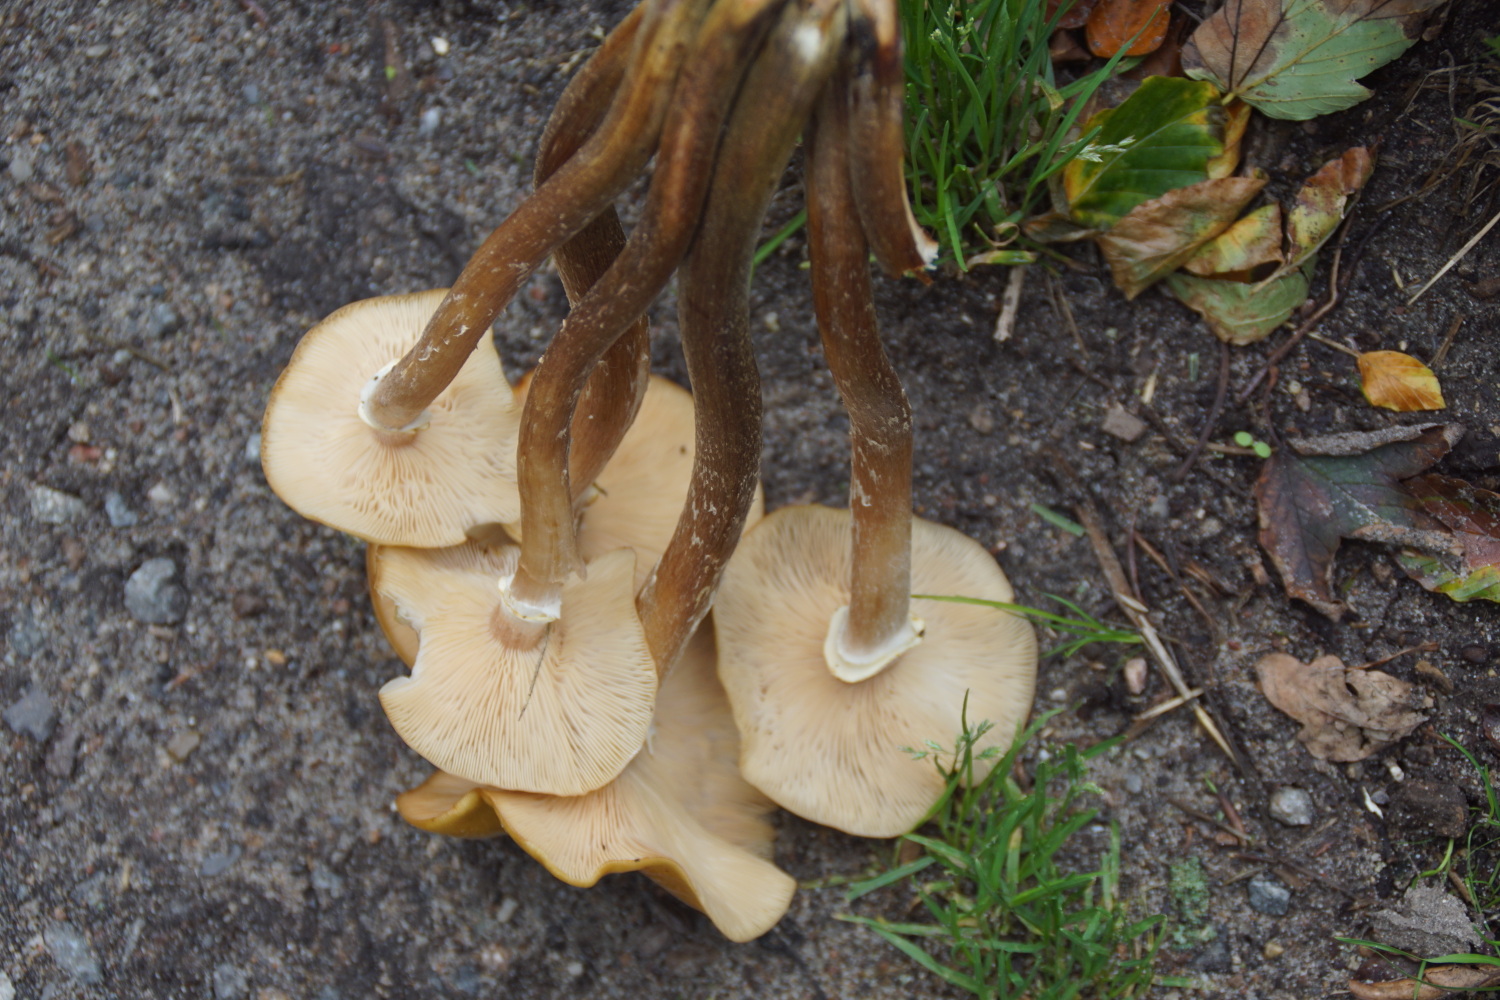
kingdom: Fungi
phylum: Basidiomycota
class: Agaricomycetes
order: Agaricales
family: Physalacriaceae
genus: Armillaria
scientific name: Armillaria mellea
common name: ægte honningsvamp
